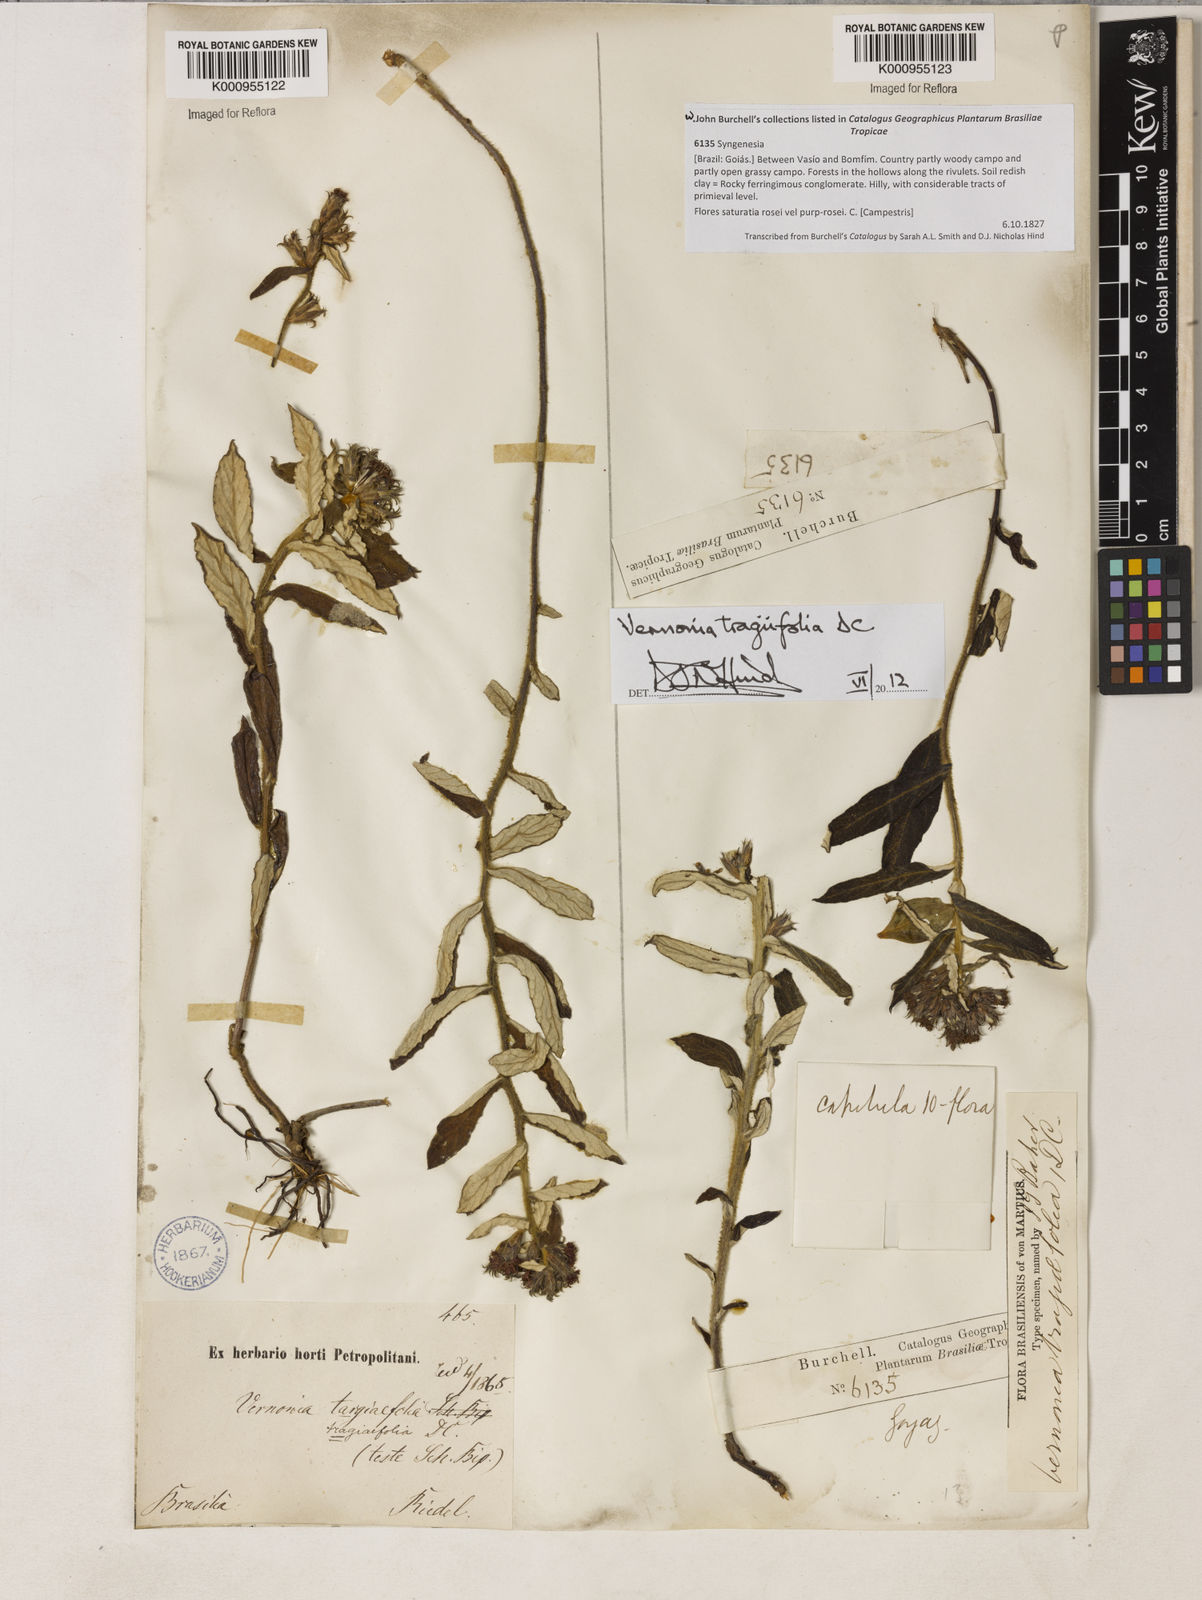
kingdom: Plantae
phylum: Tracheophyta
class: Magnoliopsida
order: Asterales
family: Asteraceae
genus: Stenocephalum
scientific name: Stenocephalum tragiifolium
